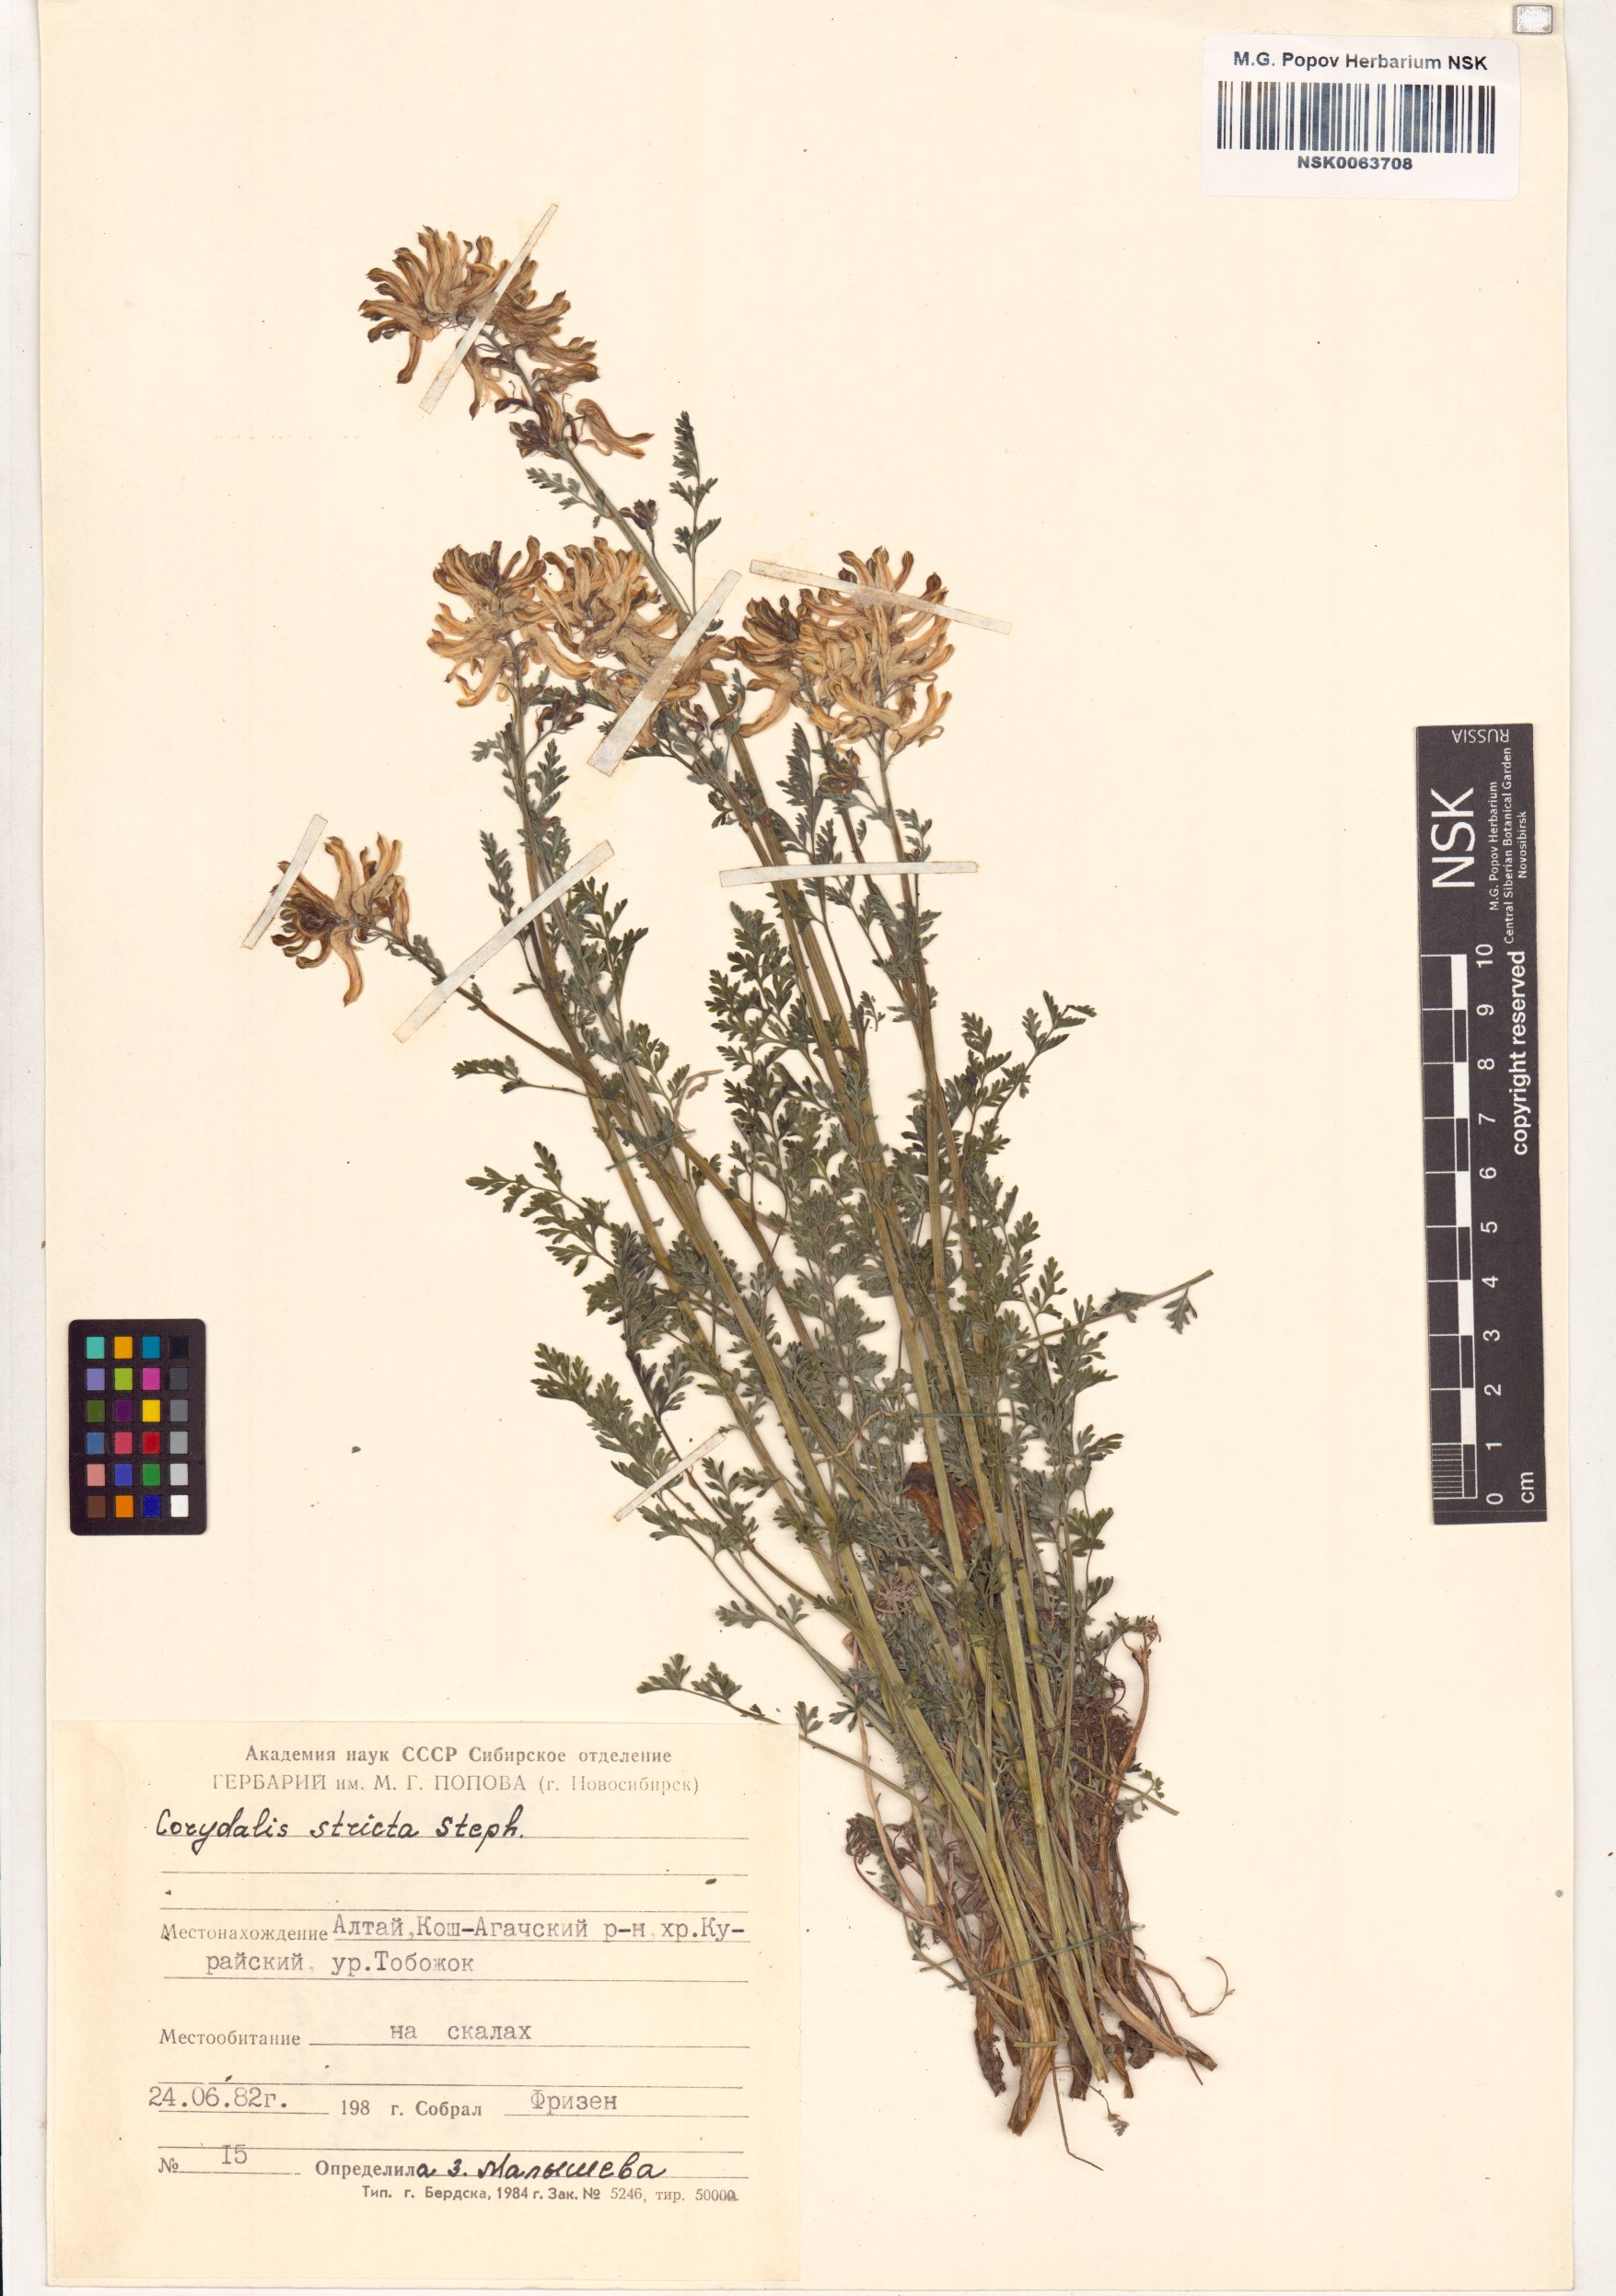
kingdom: Plantae
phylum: Tracheophyta
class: Magnoliopsida
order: Ranunculales
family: Papaveraceae
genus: Corydalis
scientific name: Corydalis stricta
